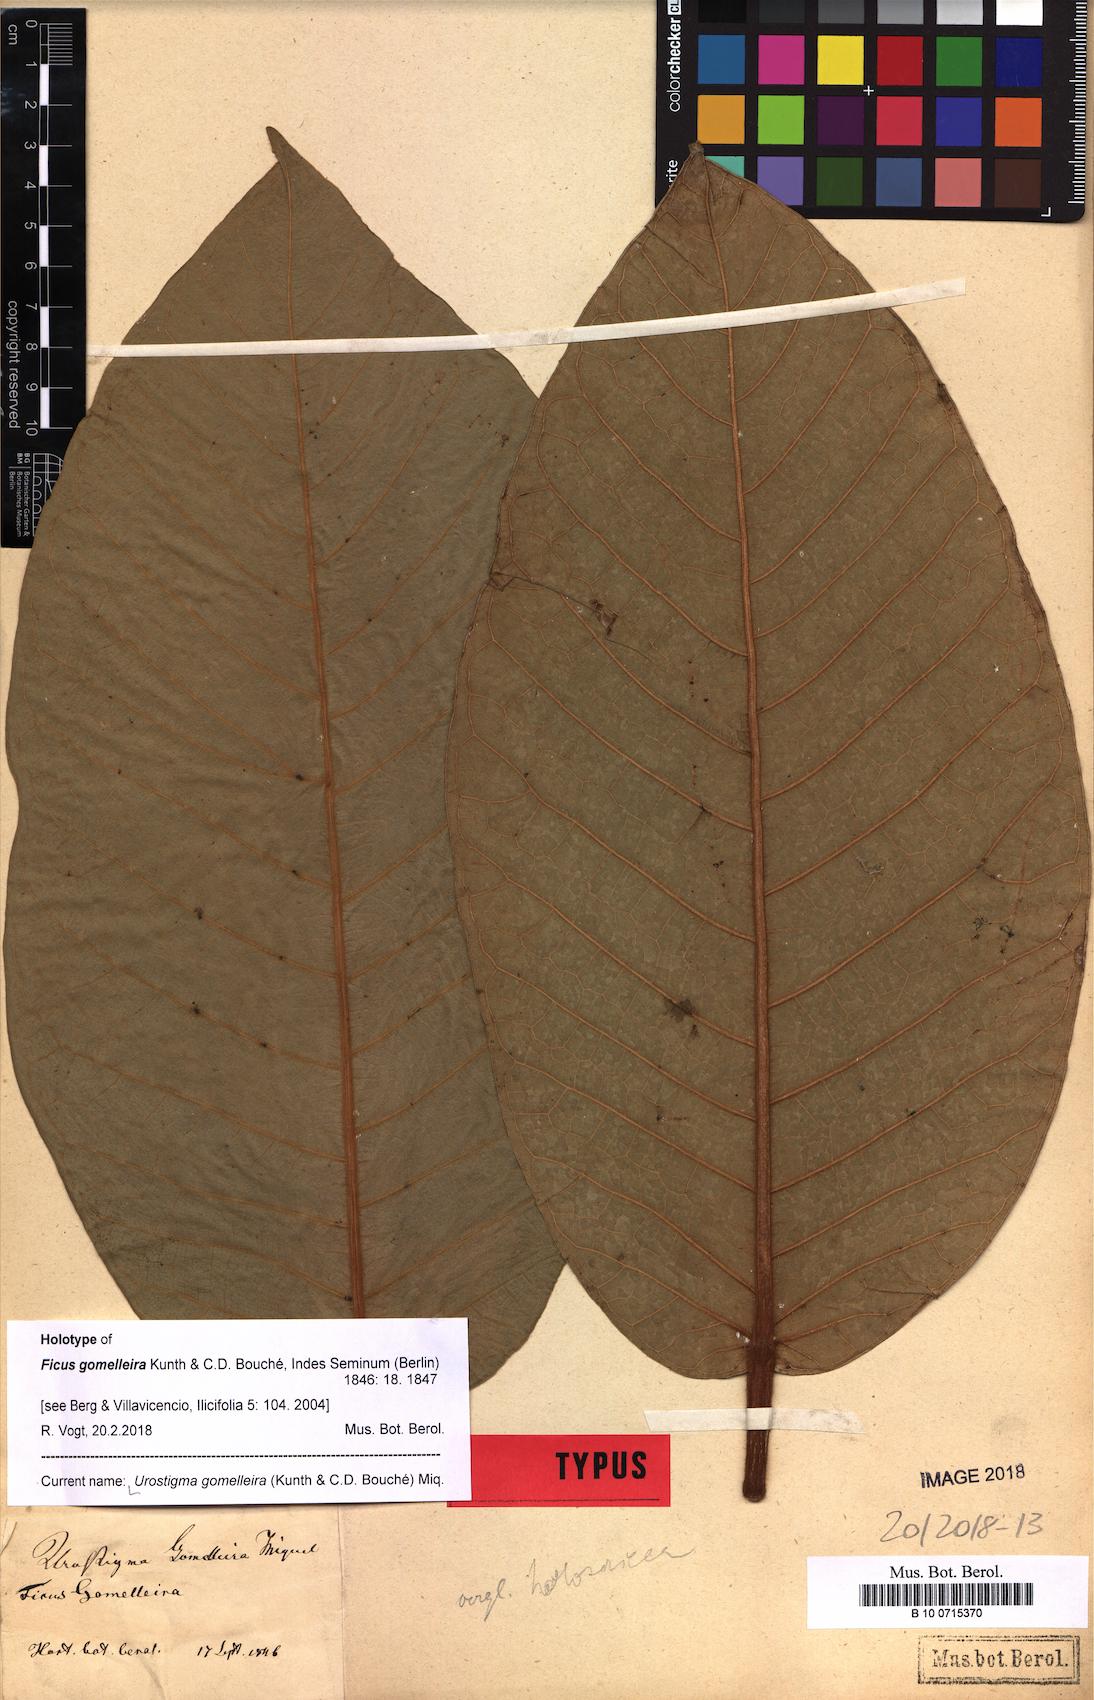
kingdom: Plantae
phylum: Tracheophyta
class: Magnoliopsida
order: Rosales
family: Moraceae
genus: Ficus
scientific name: Ficus gomelleira
